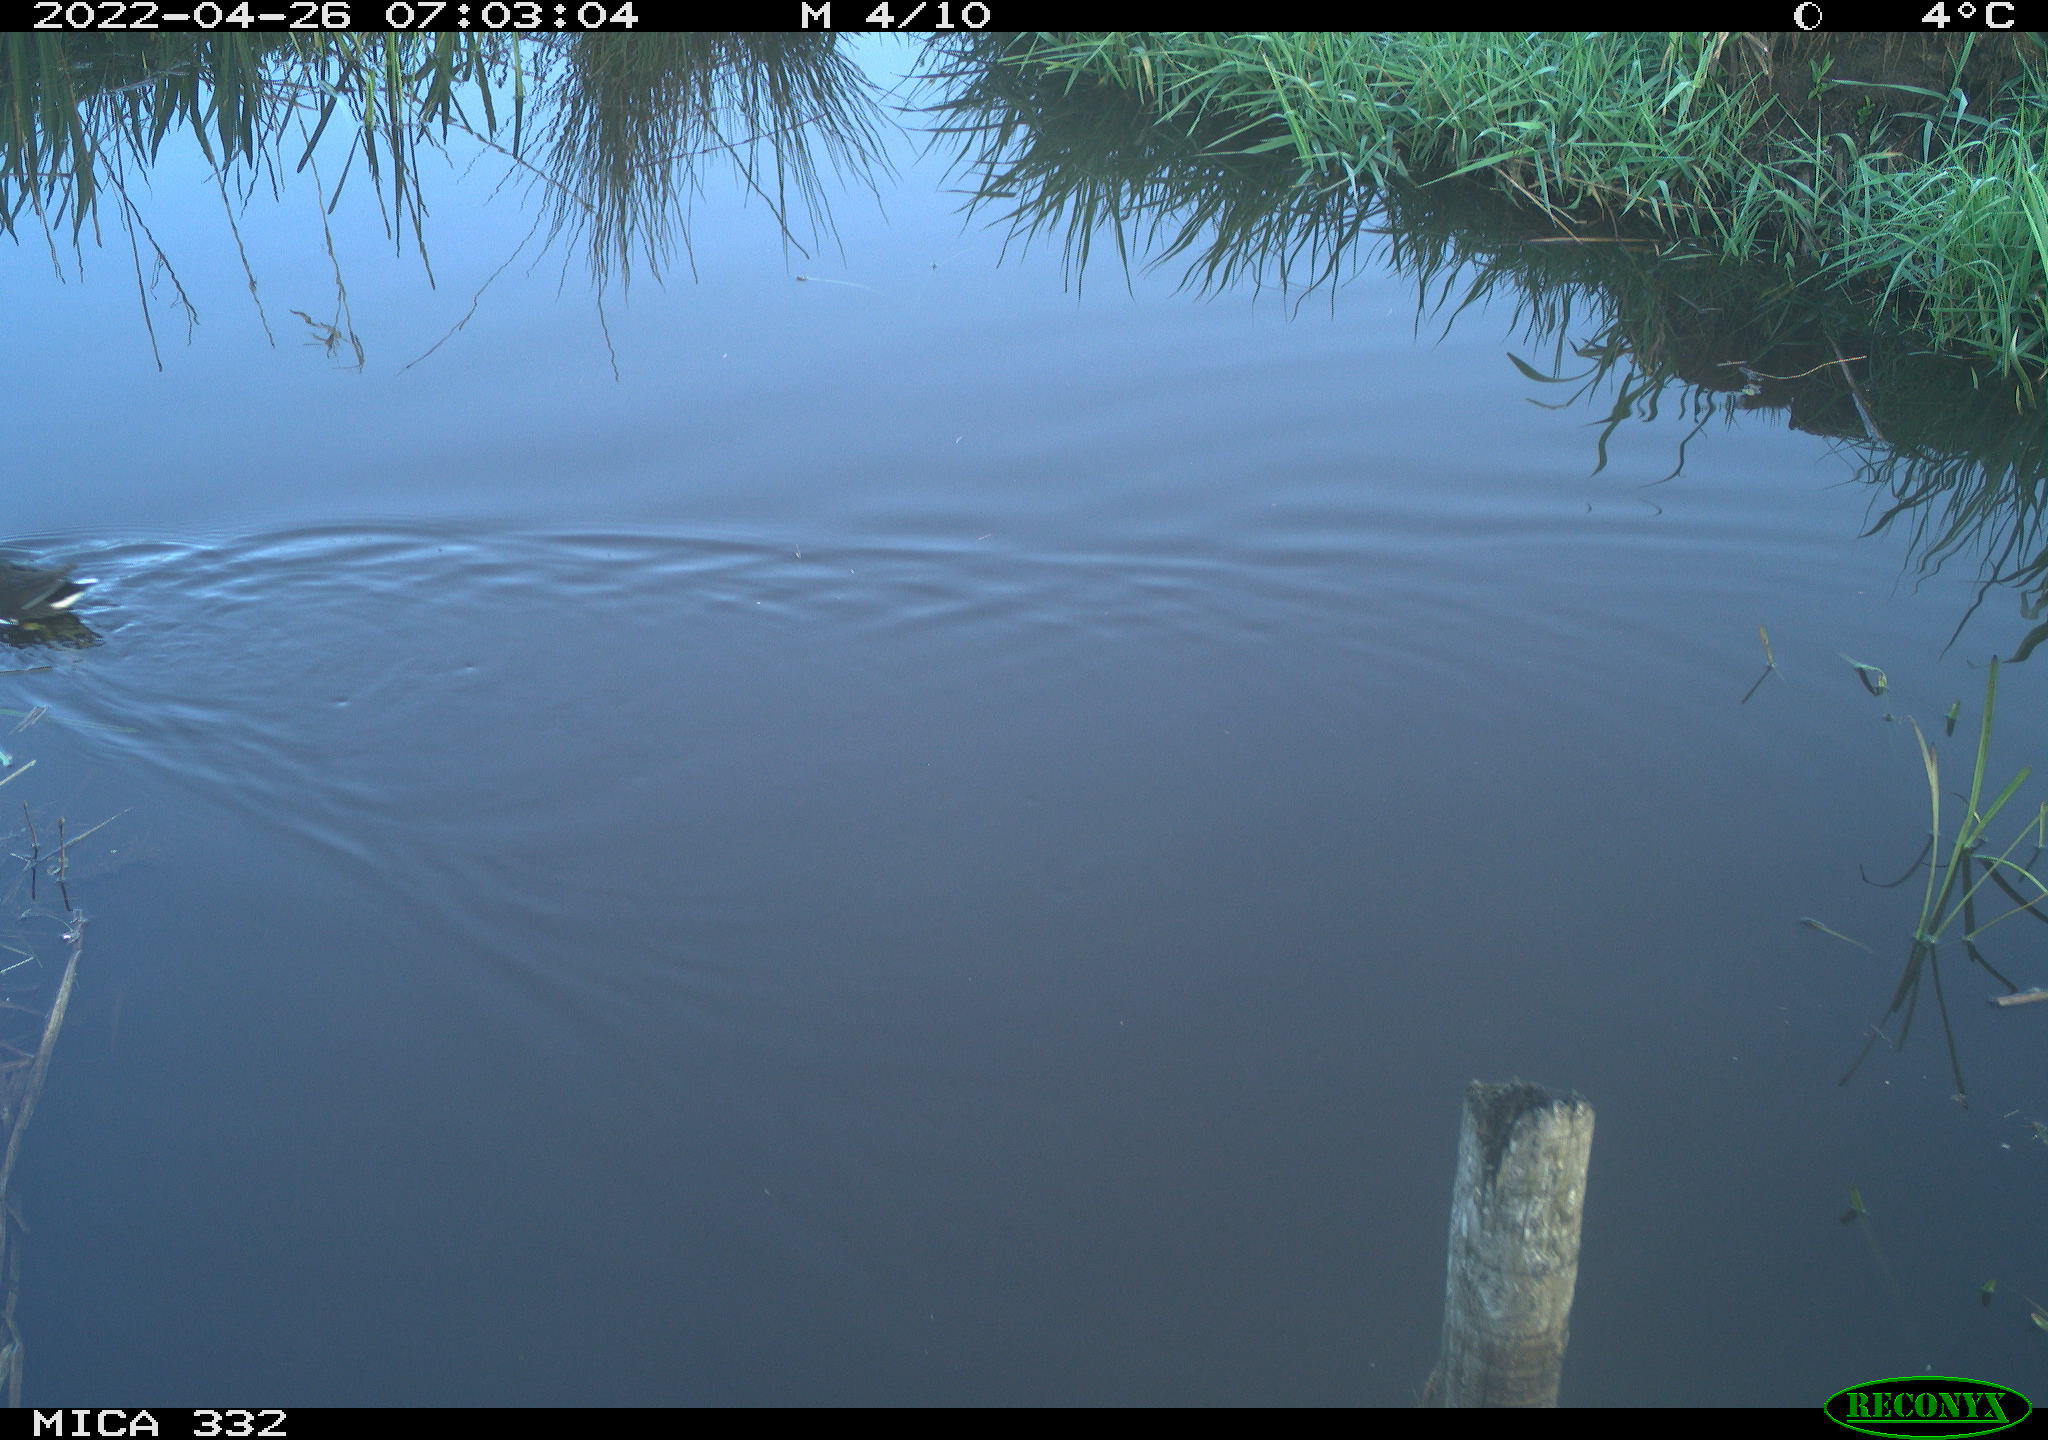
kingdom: Animalia
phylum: Chordata
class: Aves
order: Gruiformes
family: Rallidae
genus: Gallinula
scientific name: Gallinula chloropus
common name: Common moorhen
